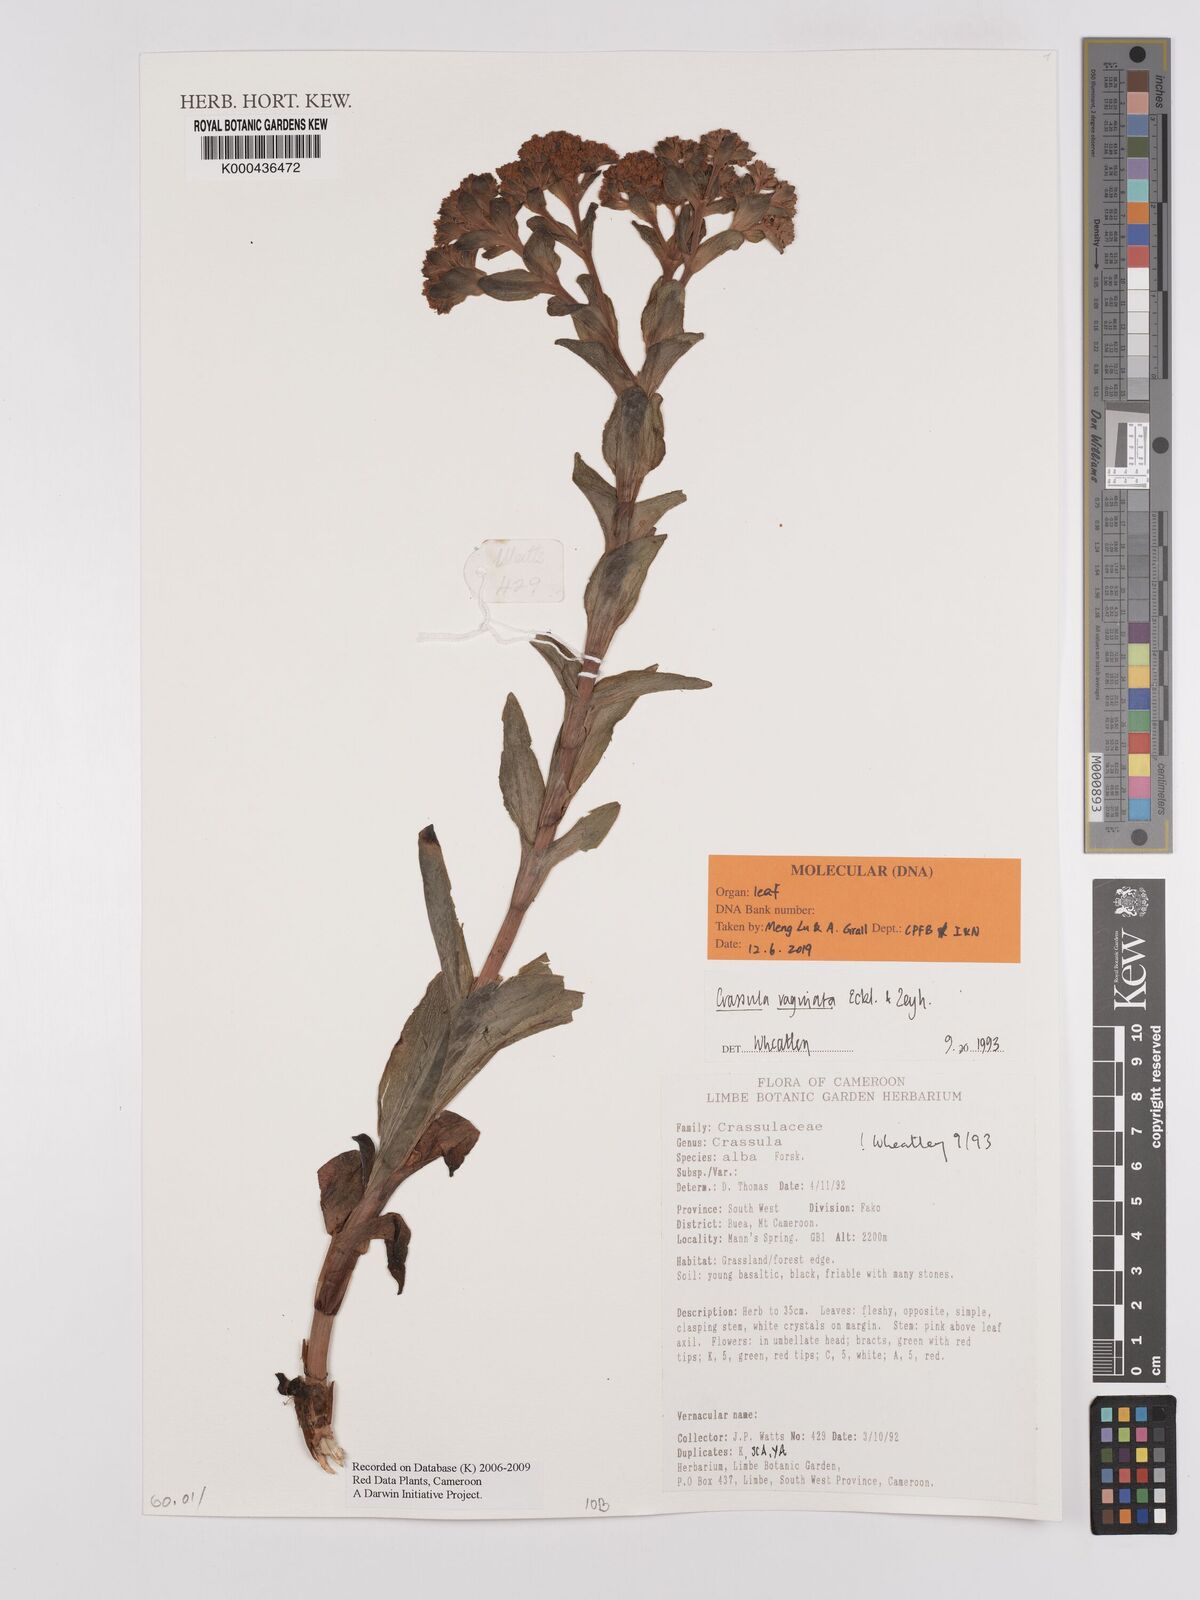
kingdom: Plantae
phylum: Tracheophyta
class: Magnoliopsida
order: Saxifragales
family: Crassulaceae
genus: Crassula
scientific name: Crassula vaginata
